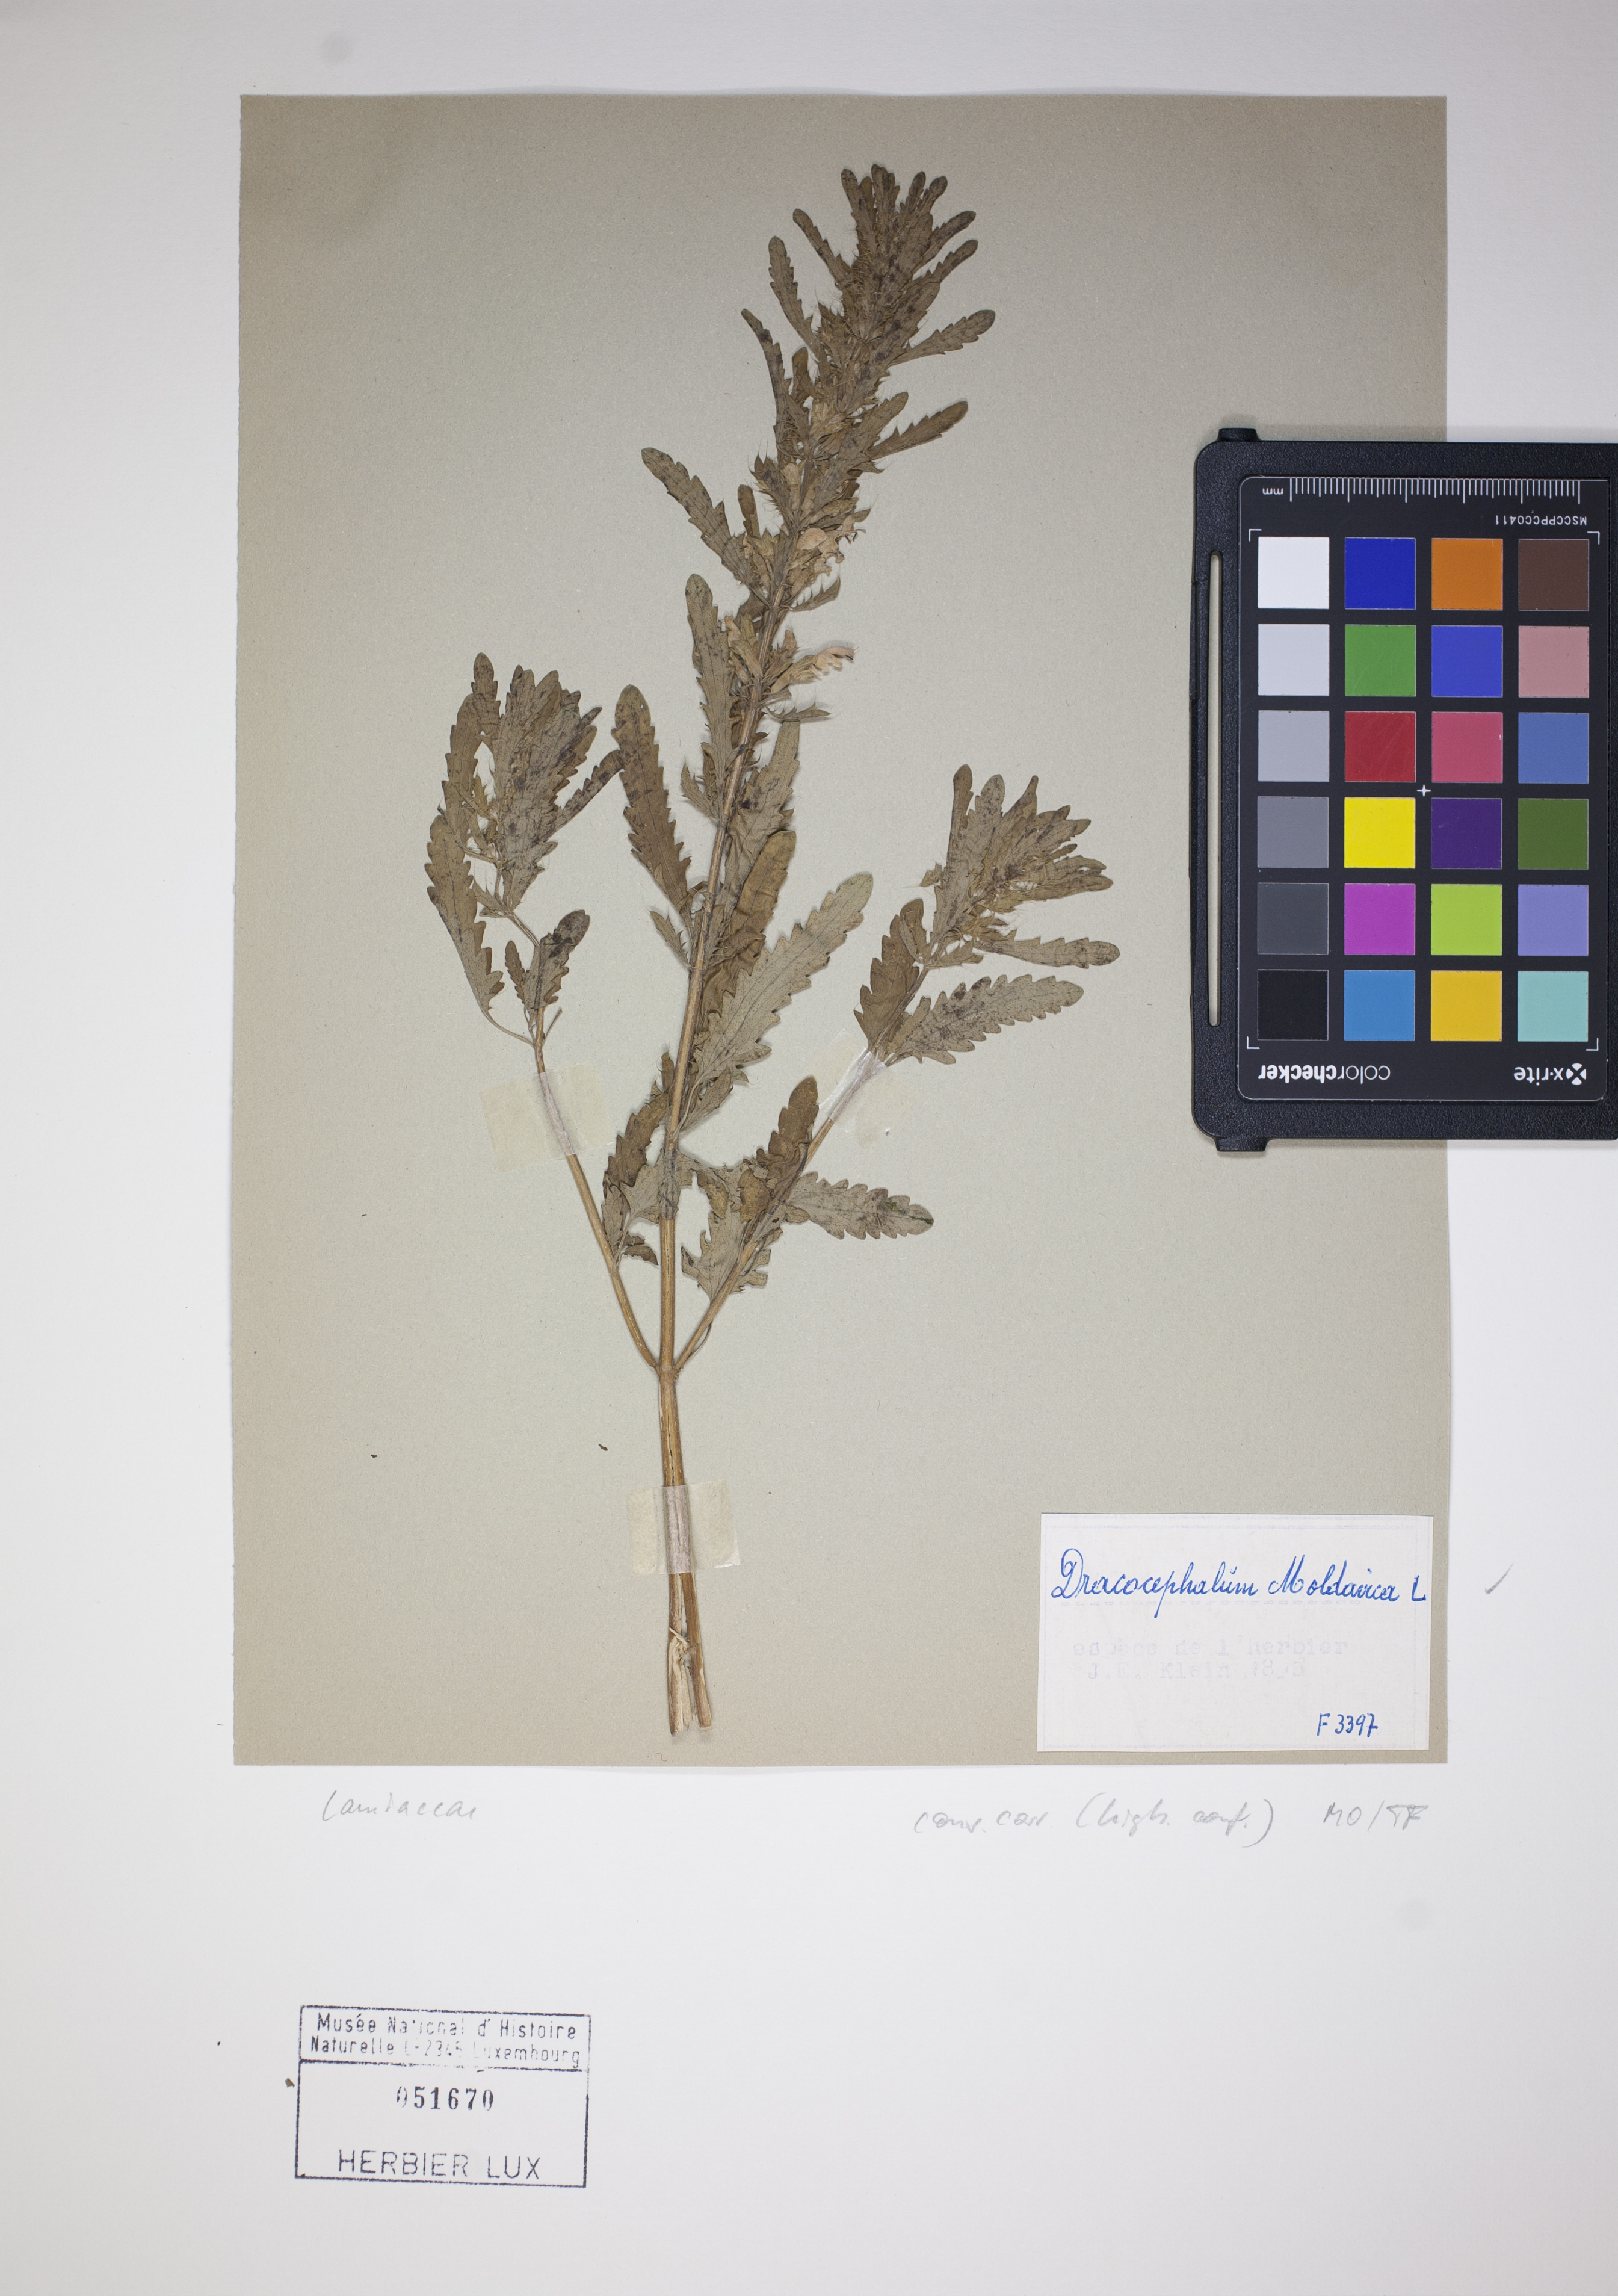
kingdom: Plantae
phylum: Tracheophyta
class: Magnoliopsida
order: Lamiales
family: Lamiaceae
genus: Dracocephalum
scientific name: Dracocephalum moldavica
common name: Moldavian dragonhead
